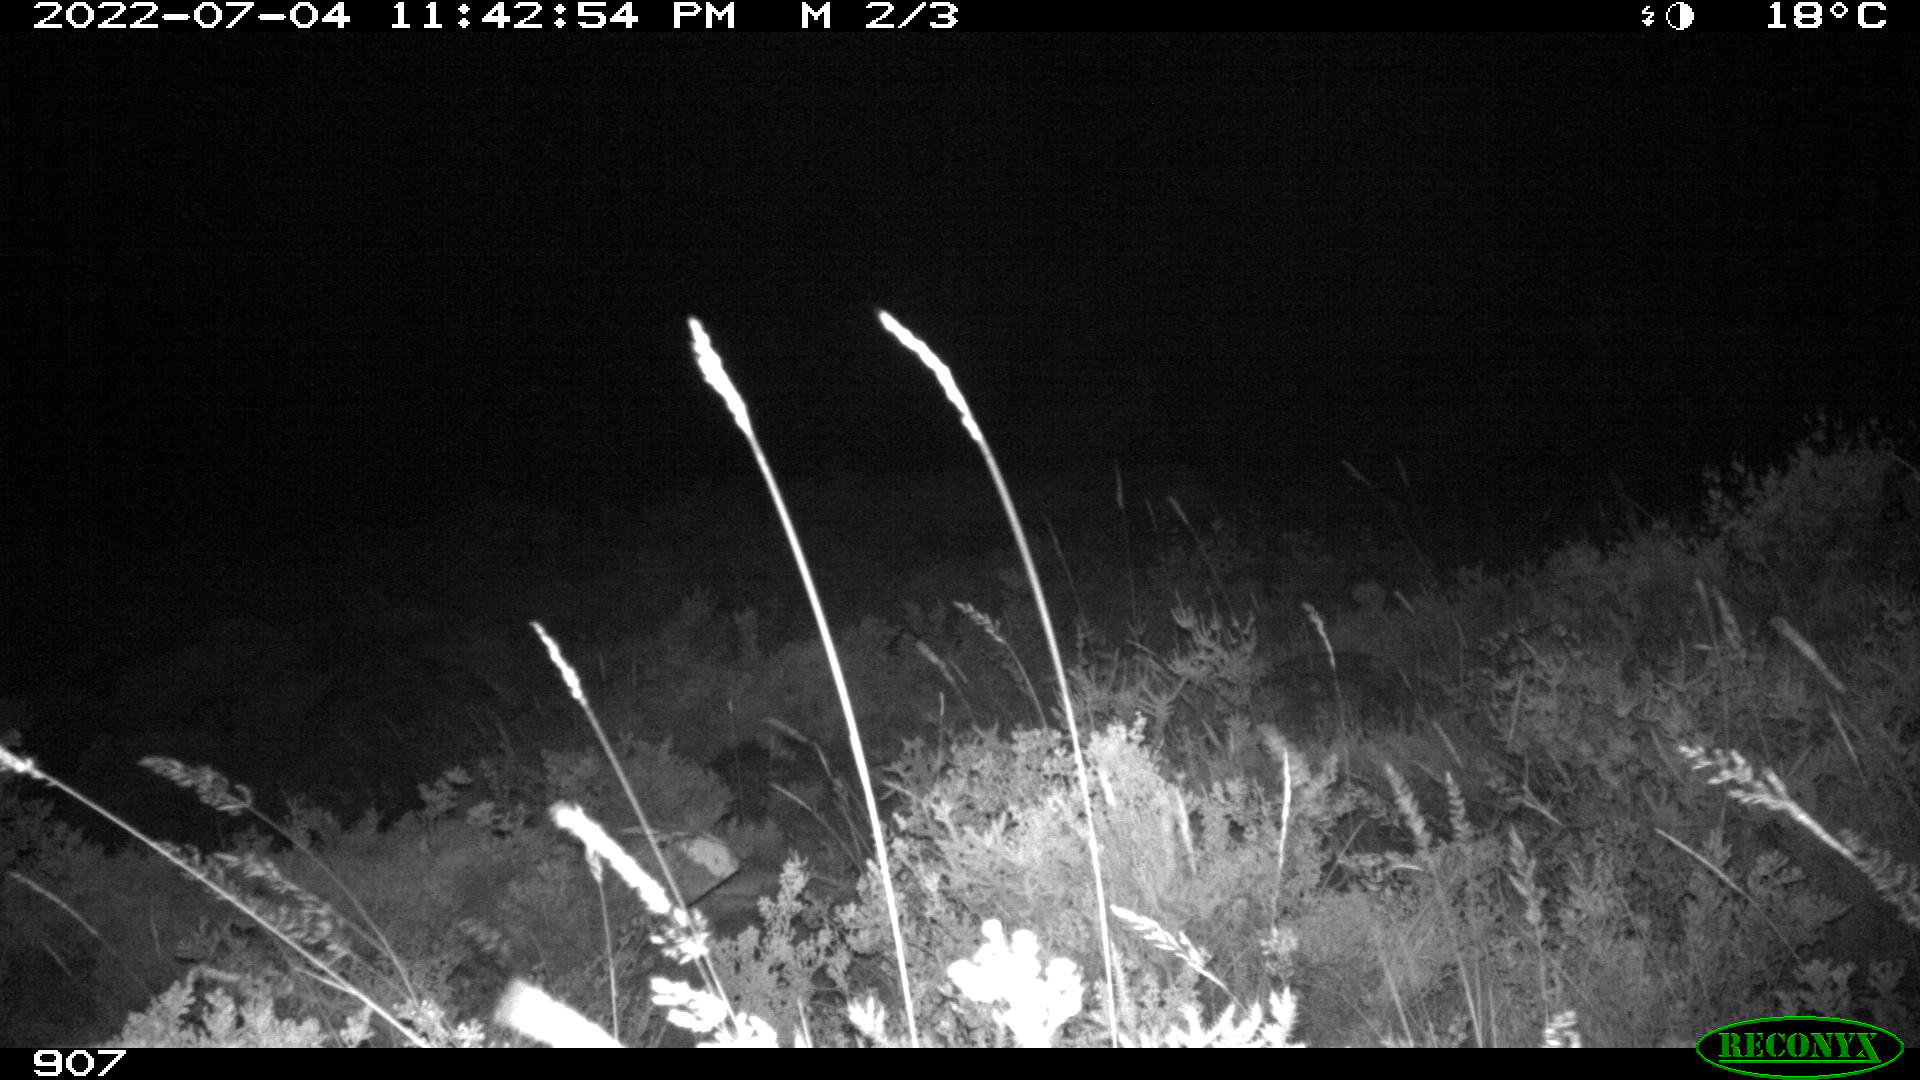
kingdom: Animalia
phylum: Chordata
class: Mammalia
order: Artiodactyla
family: Bovidae
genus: Bos
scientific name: Bos taurus
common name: Domesticated cattle
